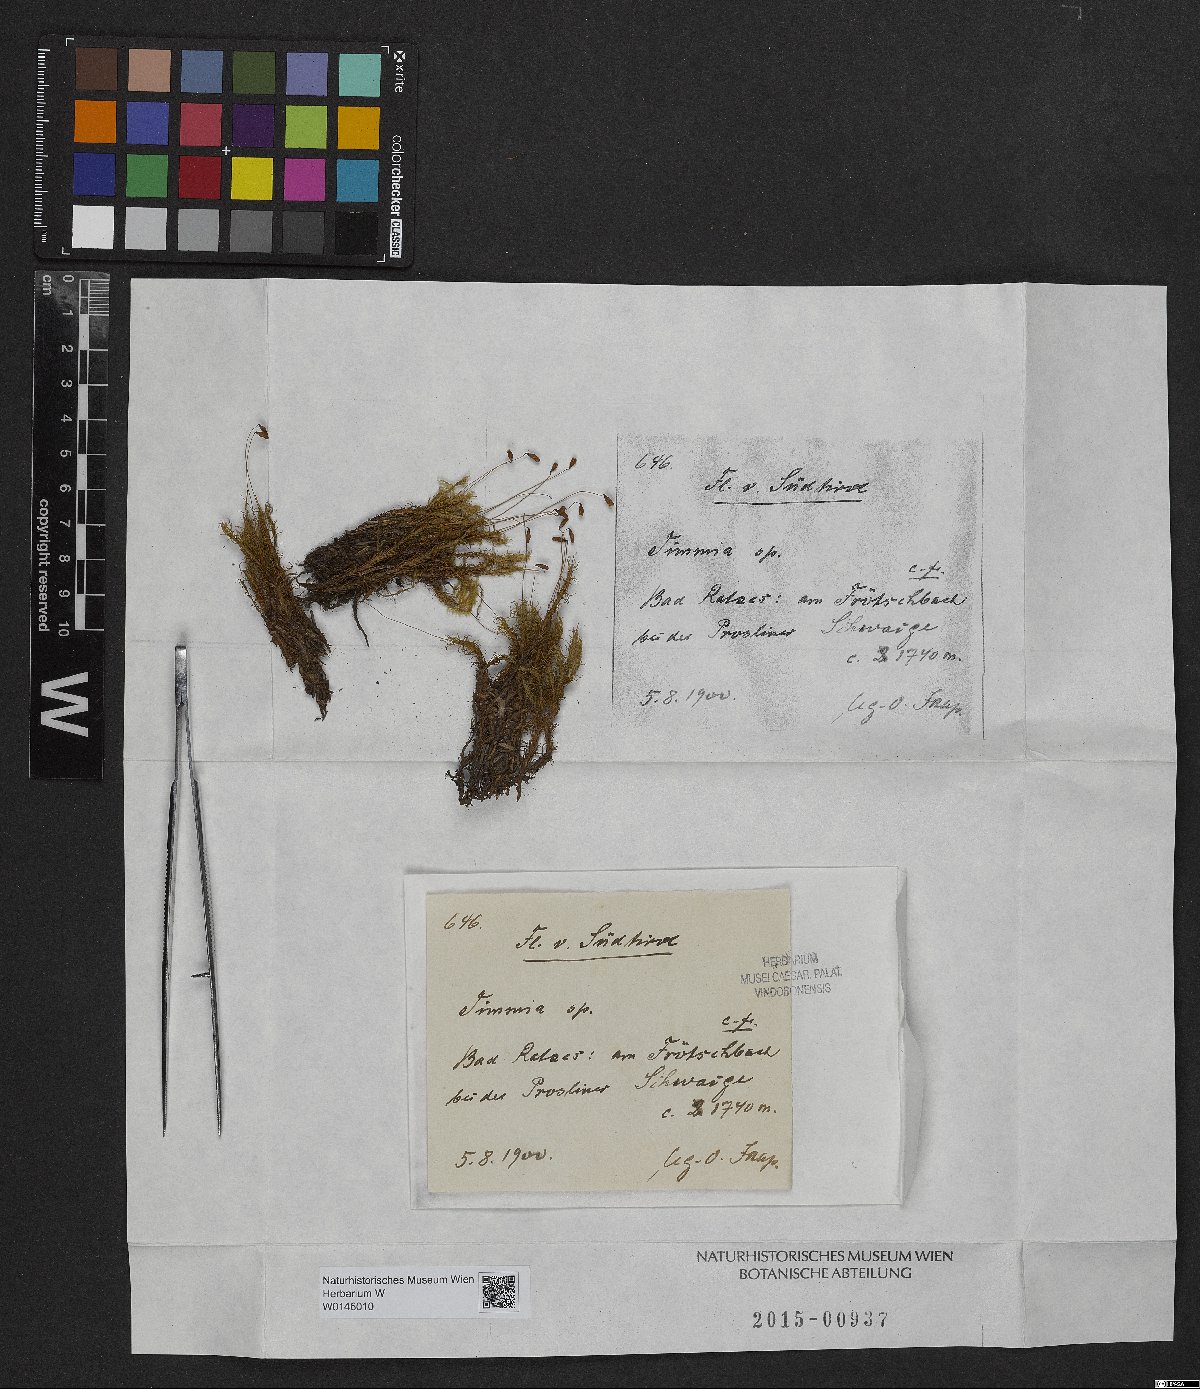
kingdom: Plantae
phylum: Bryophyta
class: Bryopsida
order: Timmiales
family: Timmiaceae
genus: Timmia
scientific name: Timmia
